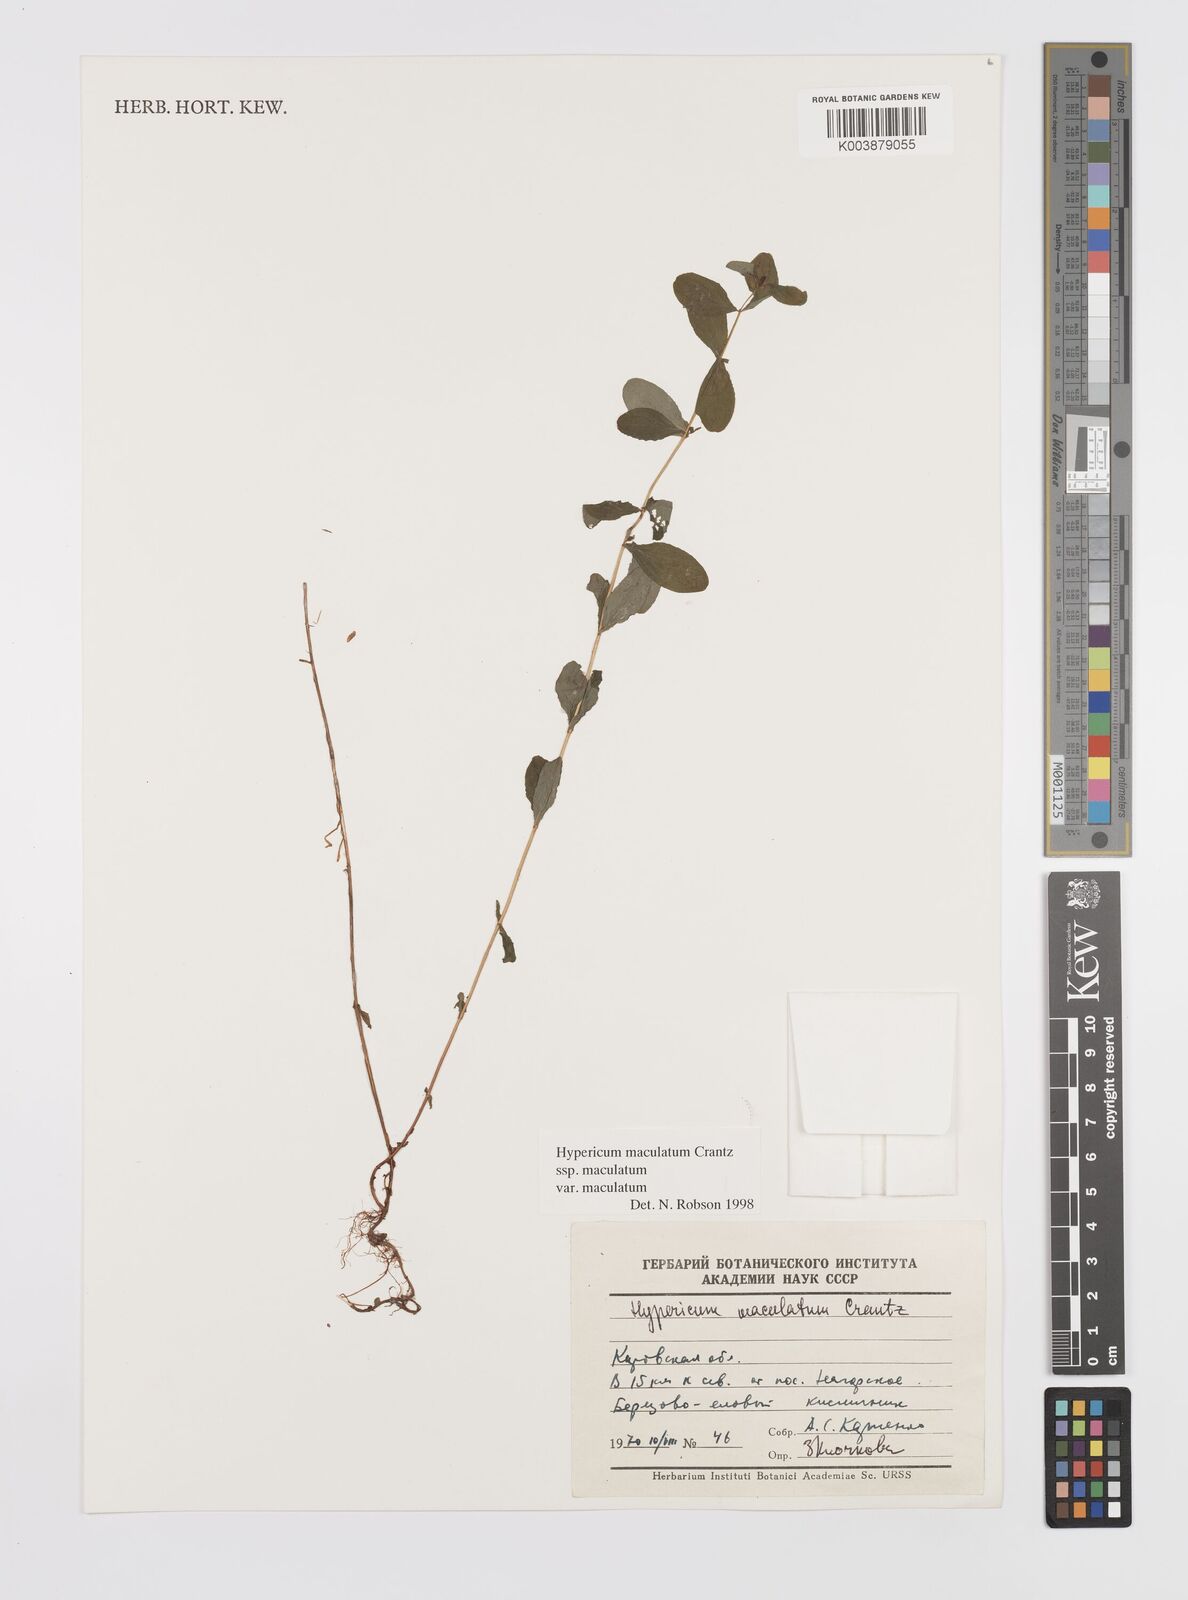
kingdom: Plantae
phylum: Tracheophyta
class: Magnoliopsida
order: Malpighiales
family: Hypericaceae
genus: Hypericum
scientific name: Hypericum maculatum
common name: Imperforate st. john's-wort
